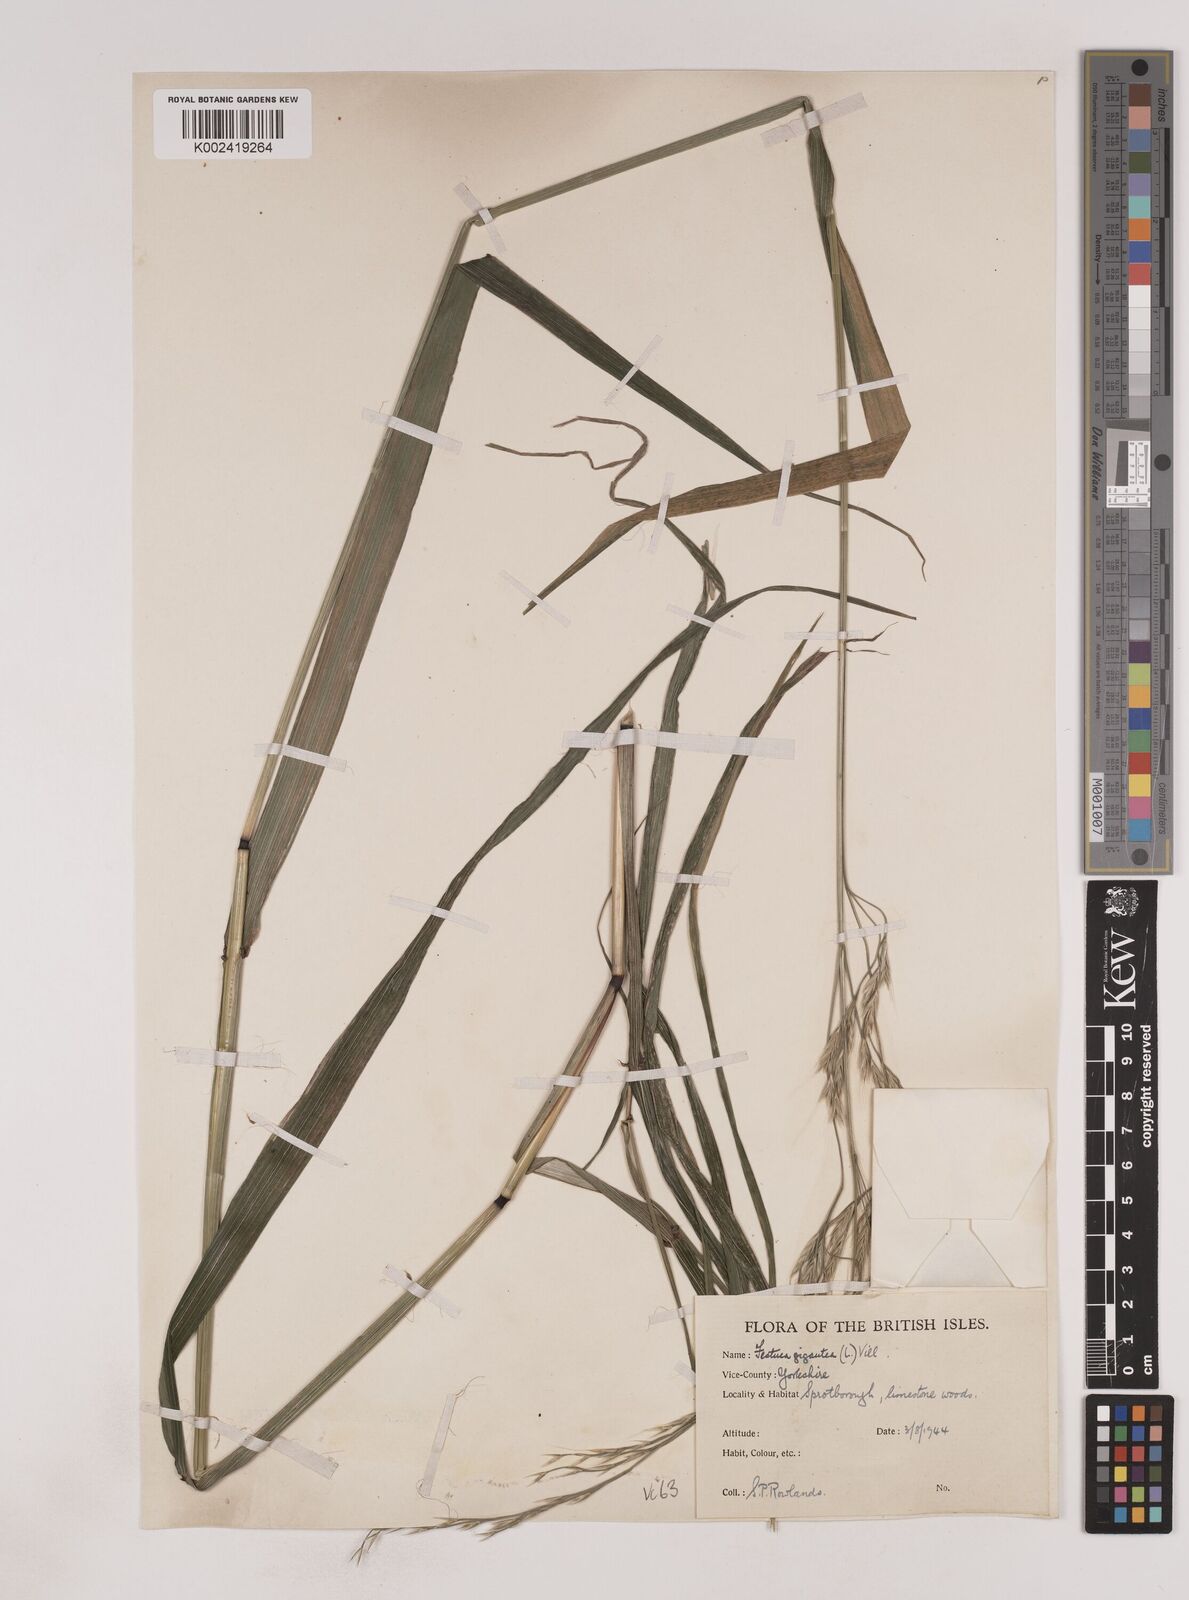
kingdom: Plantae
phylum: Tracheophyta
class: Liliopsida
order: Poales
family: Poaceae
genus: Lolium
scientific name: Lolium giganteum
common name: Giant fescue
